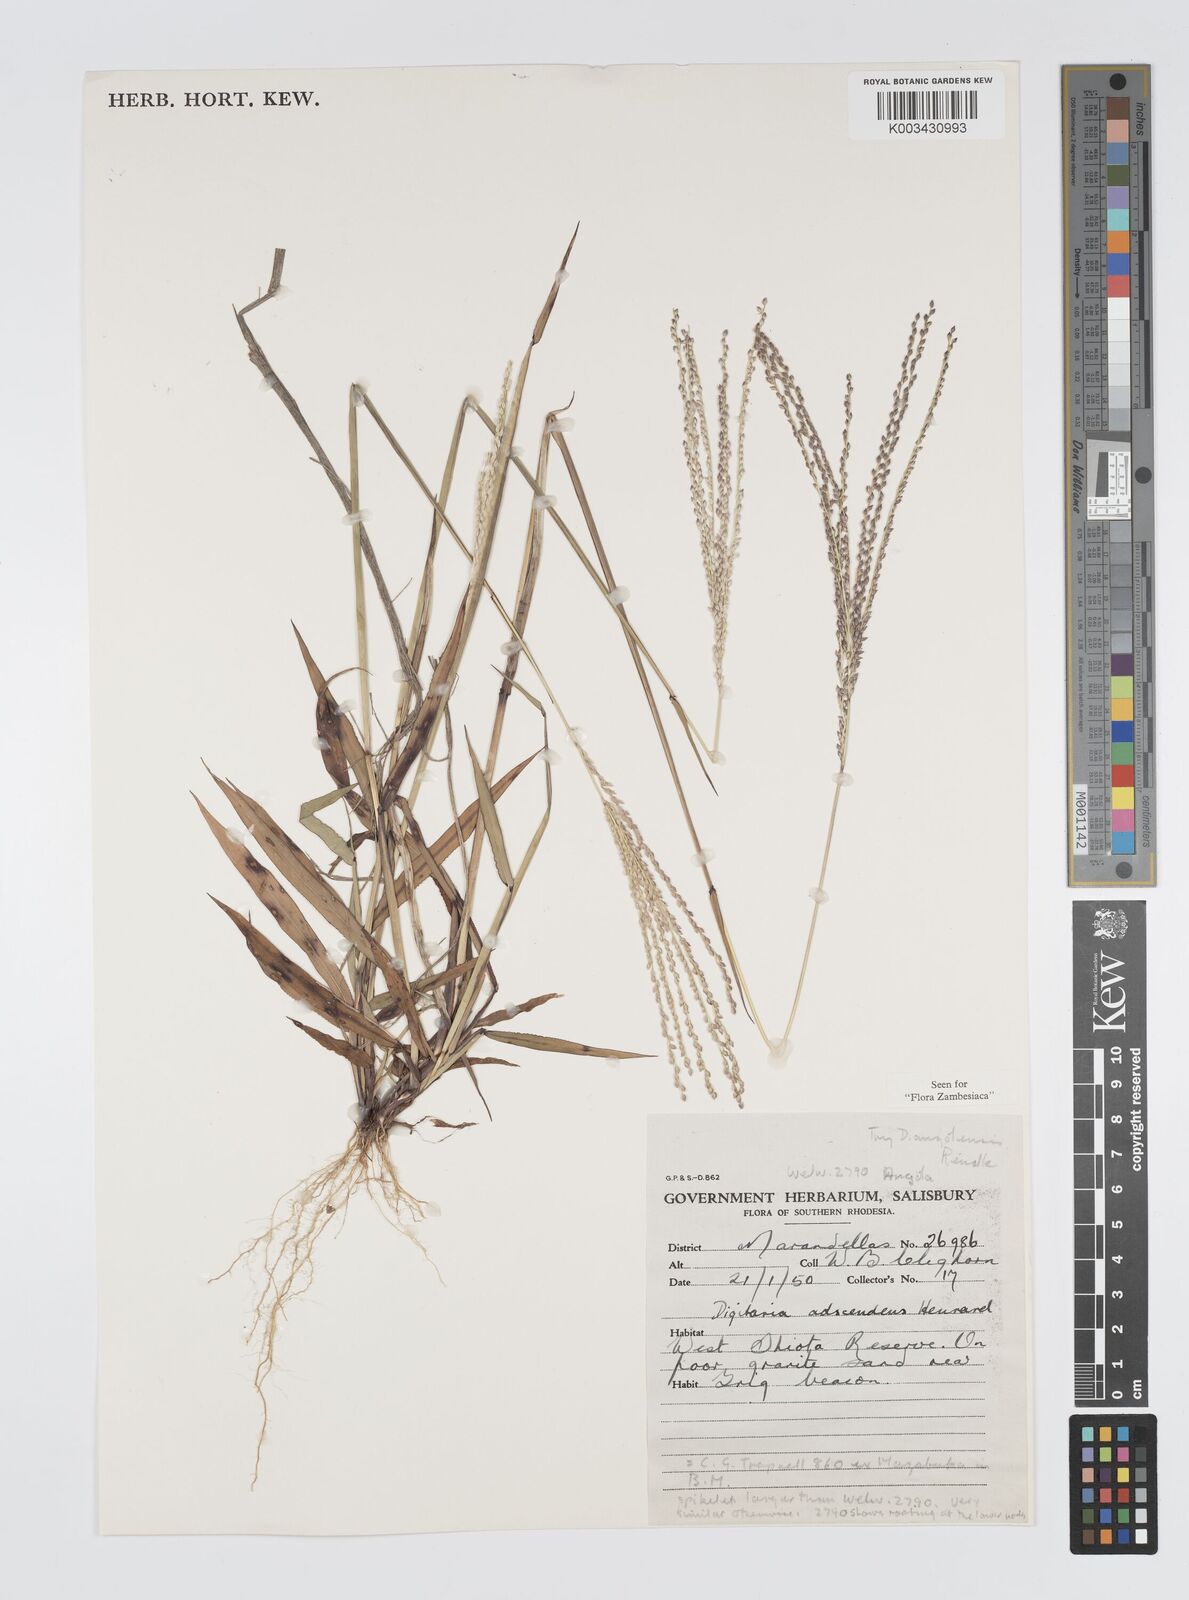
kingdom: Plantae
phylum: Tracheophyta
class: Liliopsida
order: Poales
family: Poaceae
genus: Digitaria
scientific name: Digitaria angolensis
